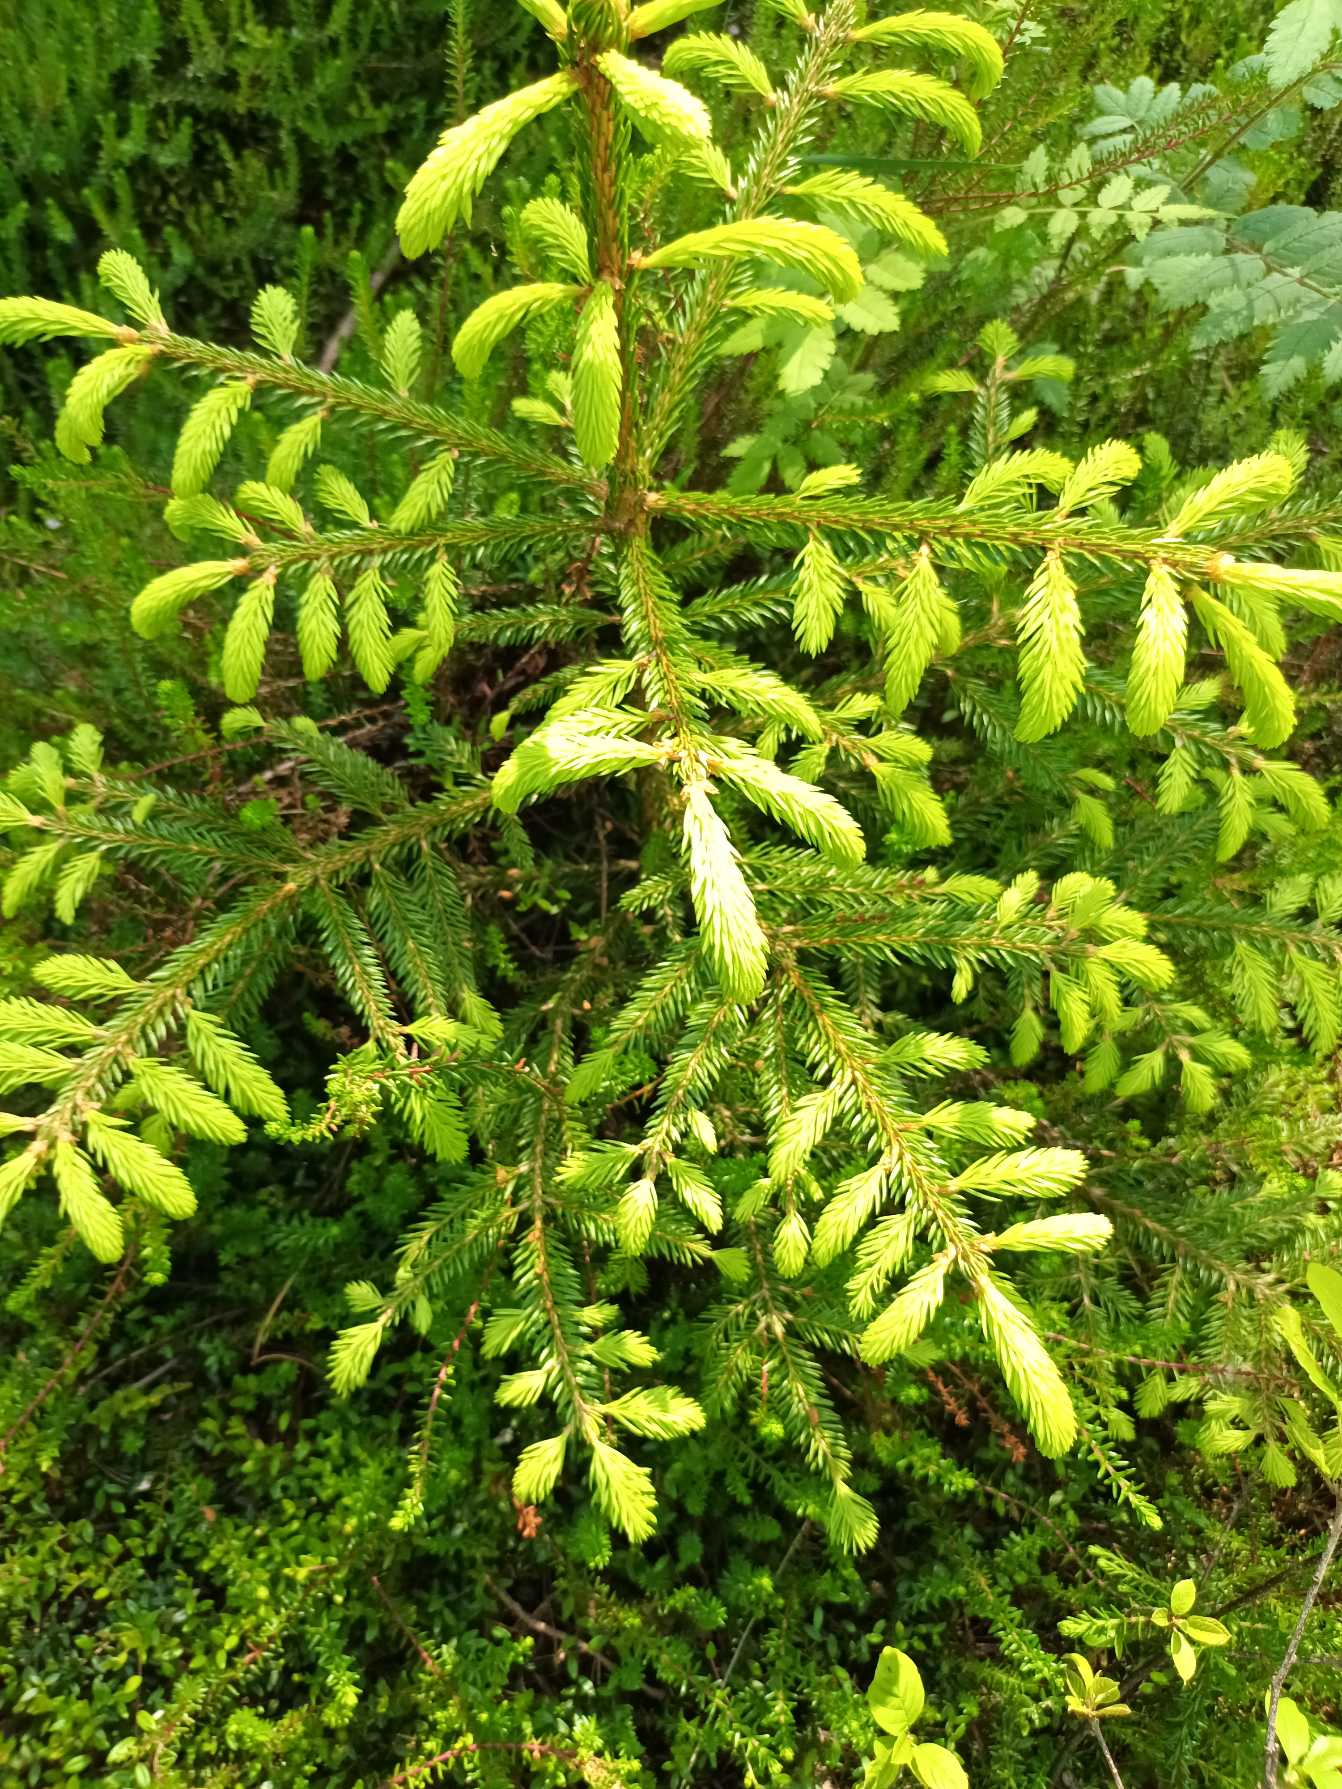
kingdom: Plantae
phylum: Tracheophyta
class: Pinopsida
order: Pinales
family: Pinaceae
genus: Picea
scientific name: Picea abies
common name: Rød-gran
